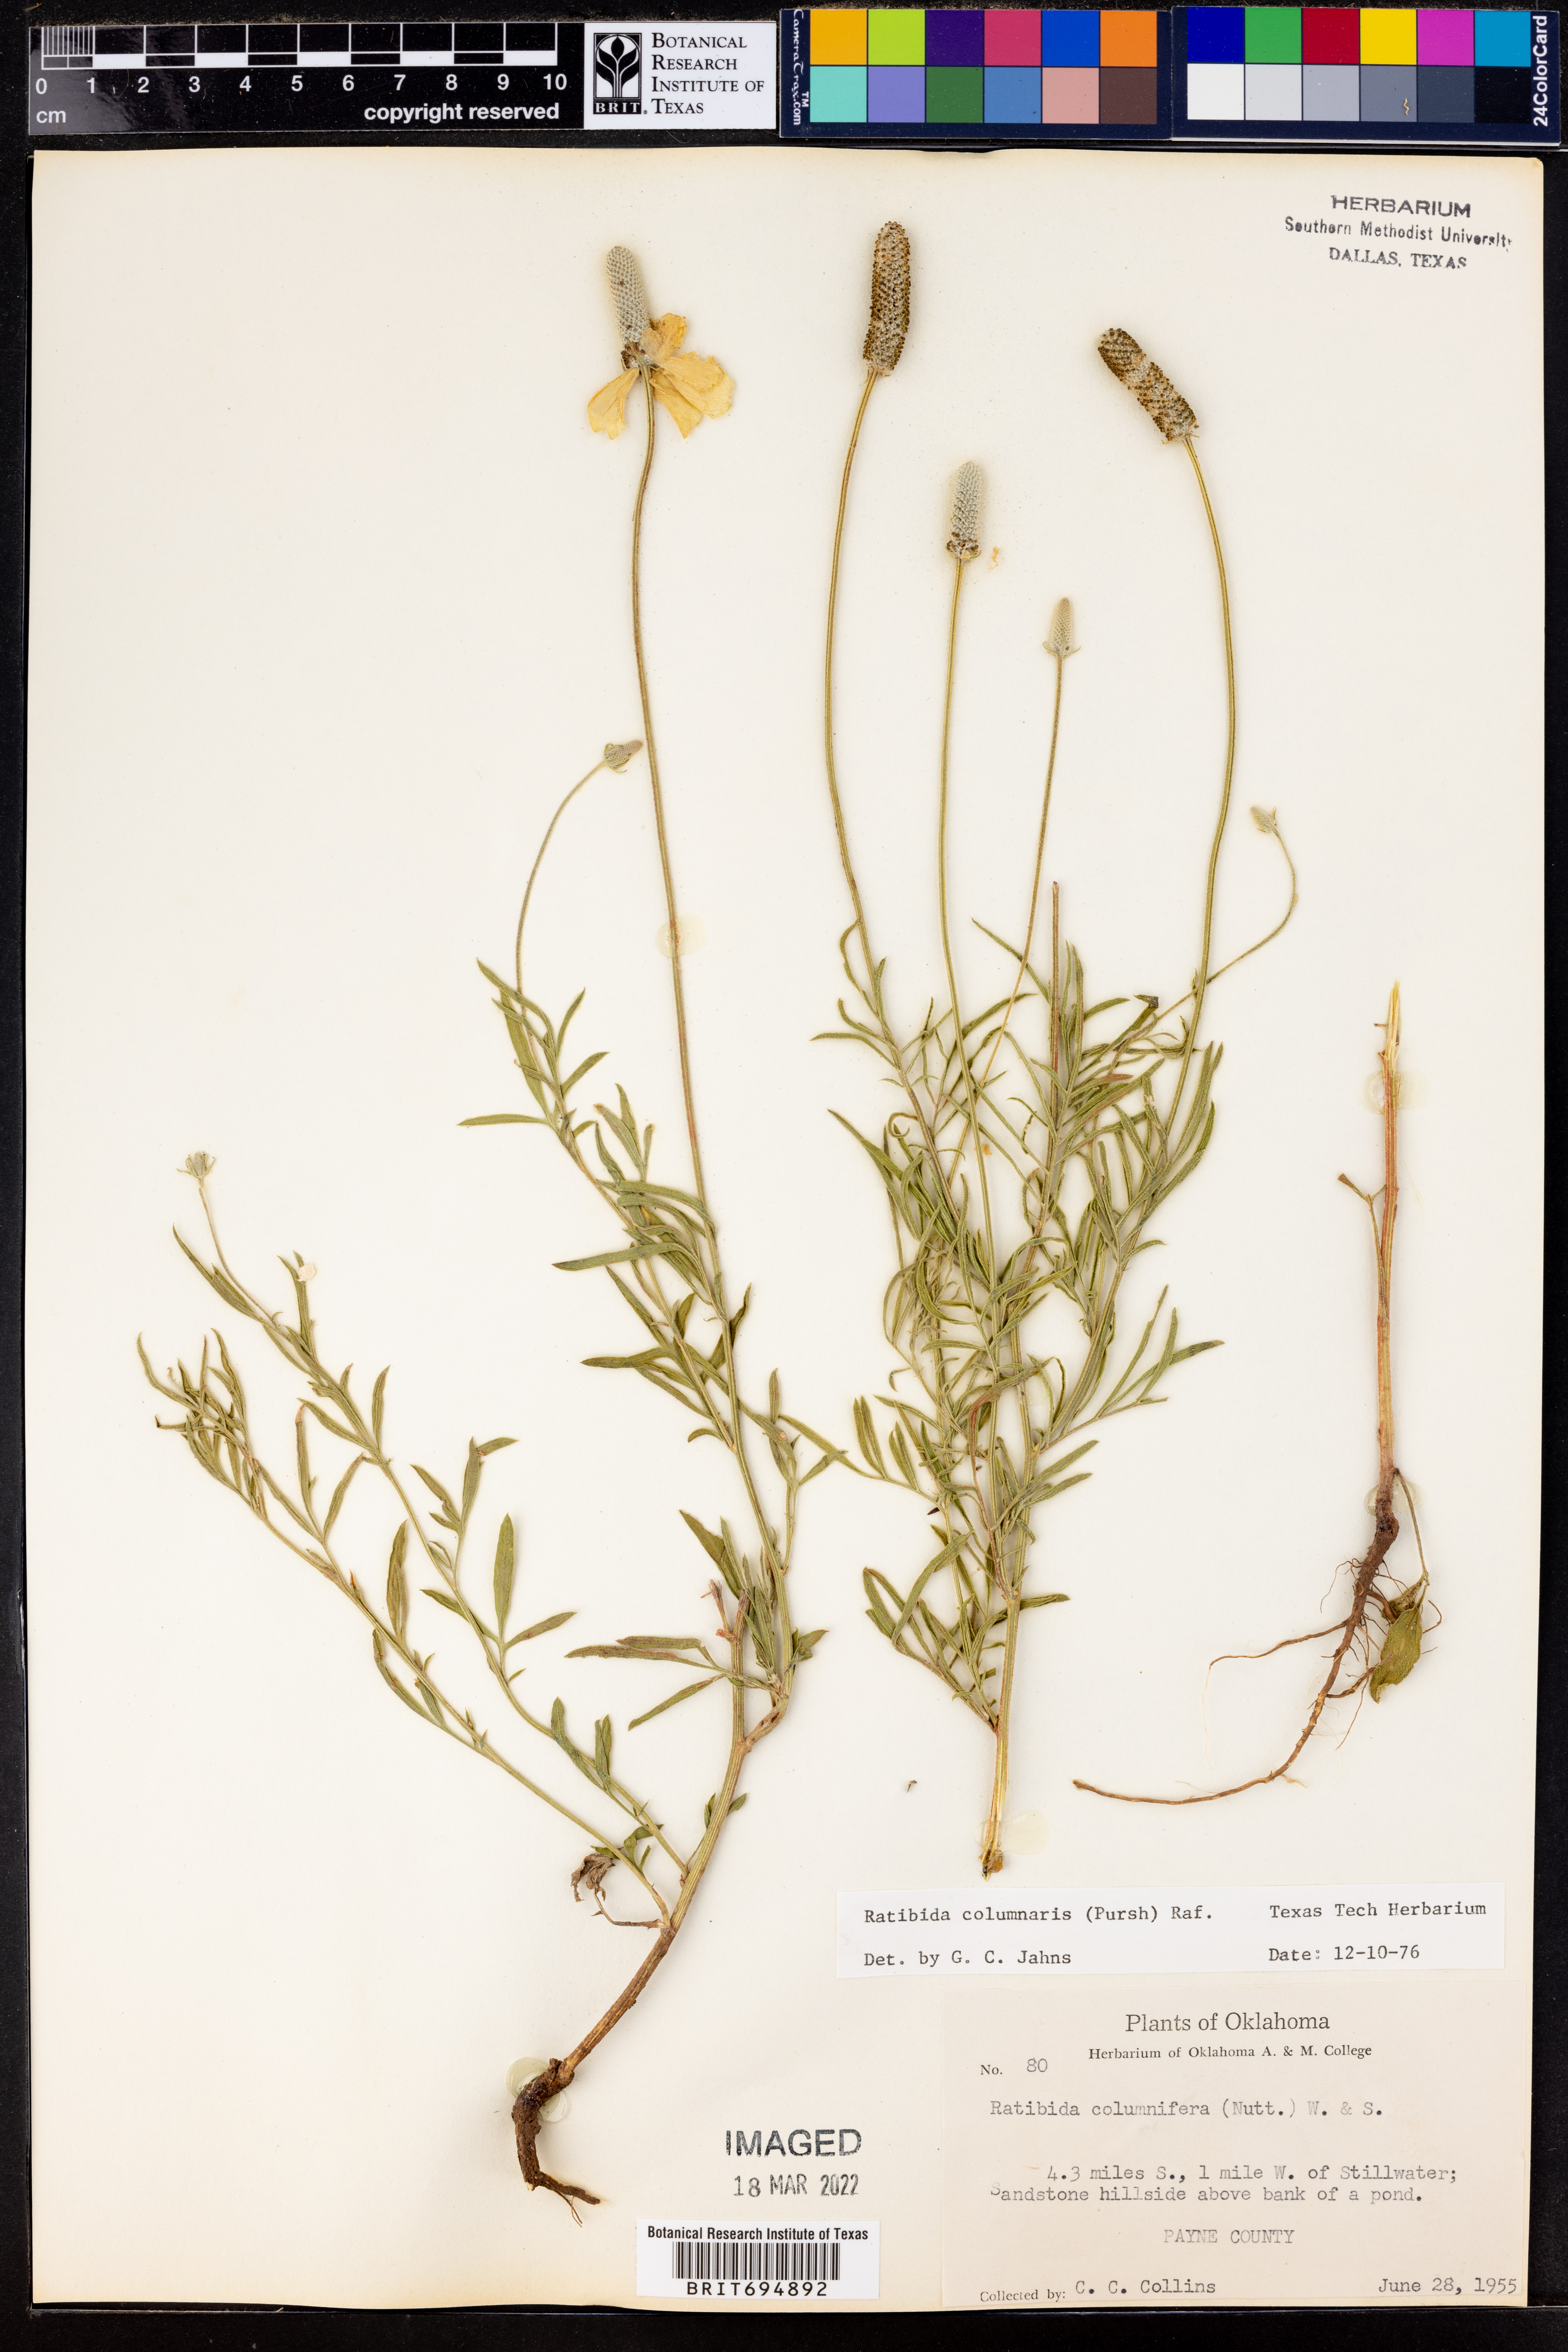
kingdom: Plantae
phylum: Tracheophyta
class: Magnoliopsida
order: Asterales
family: Asteraceae
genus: Ratibida
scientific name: Ratibida columnifera
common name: Prairie coneflower
